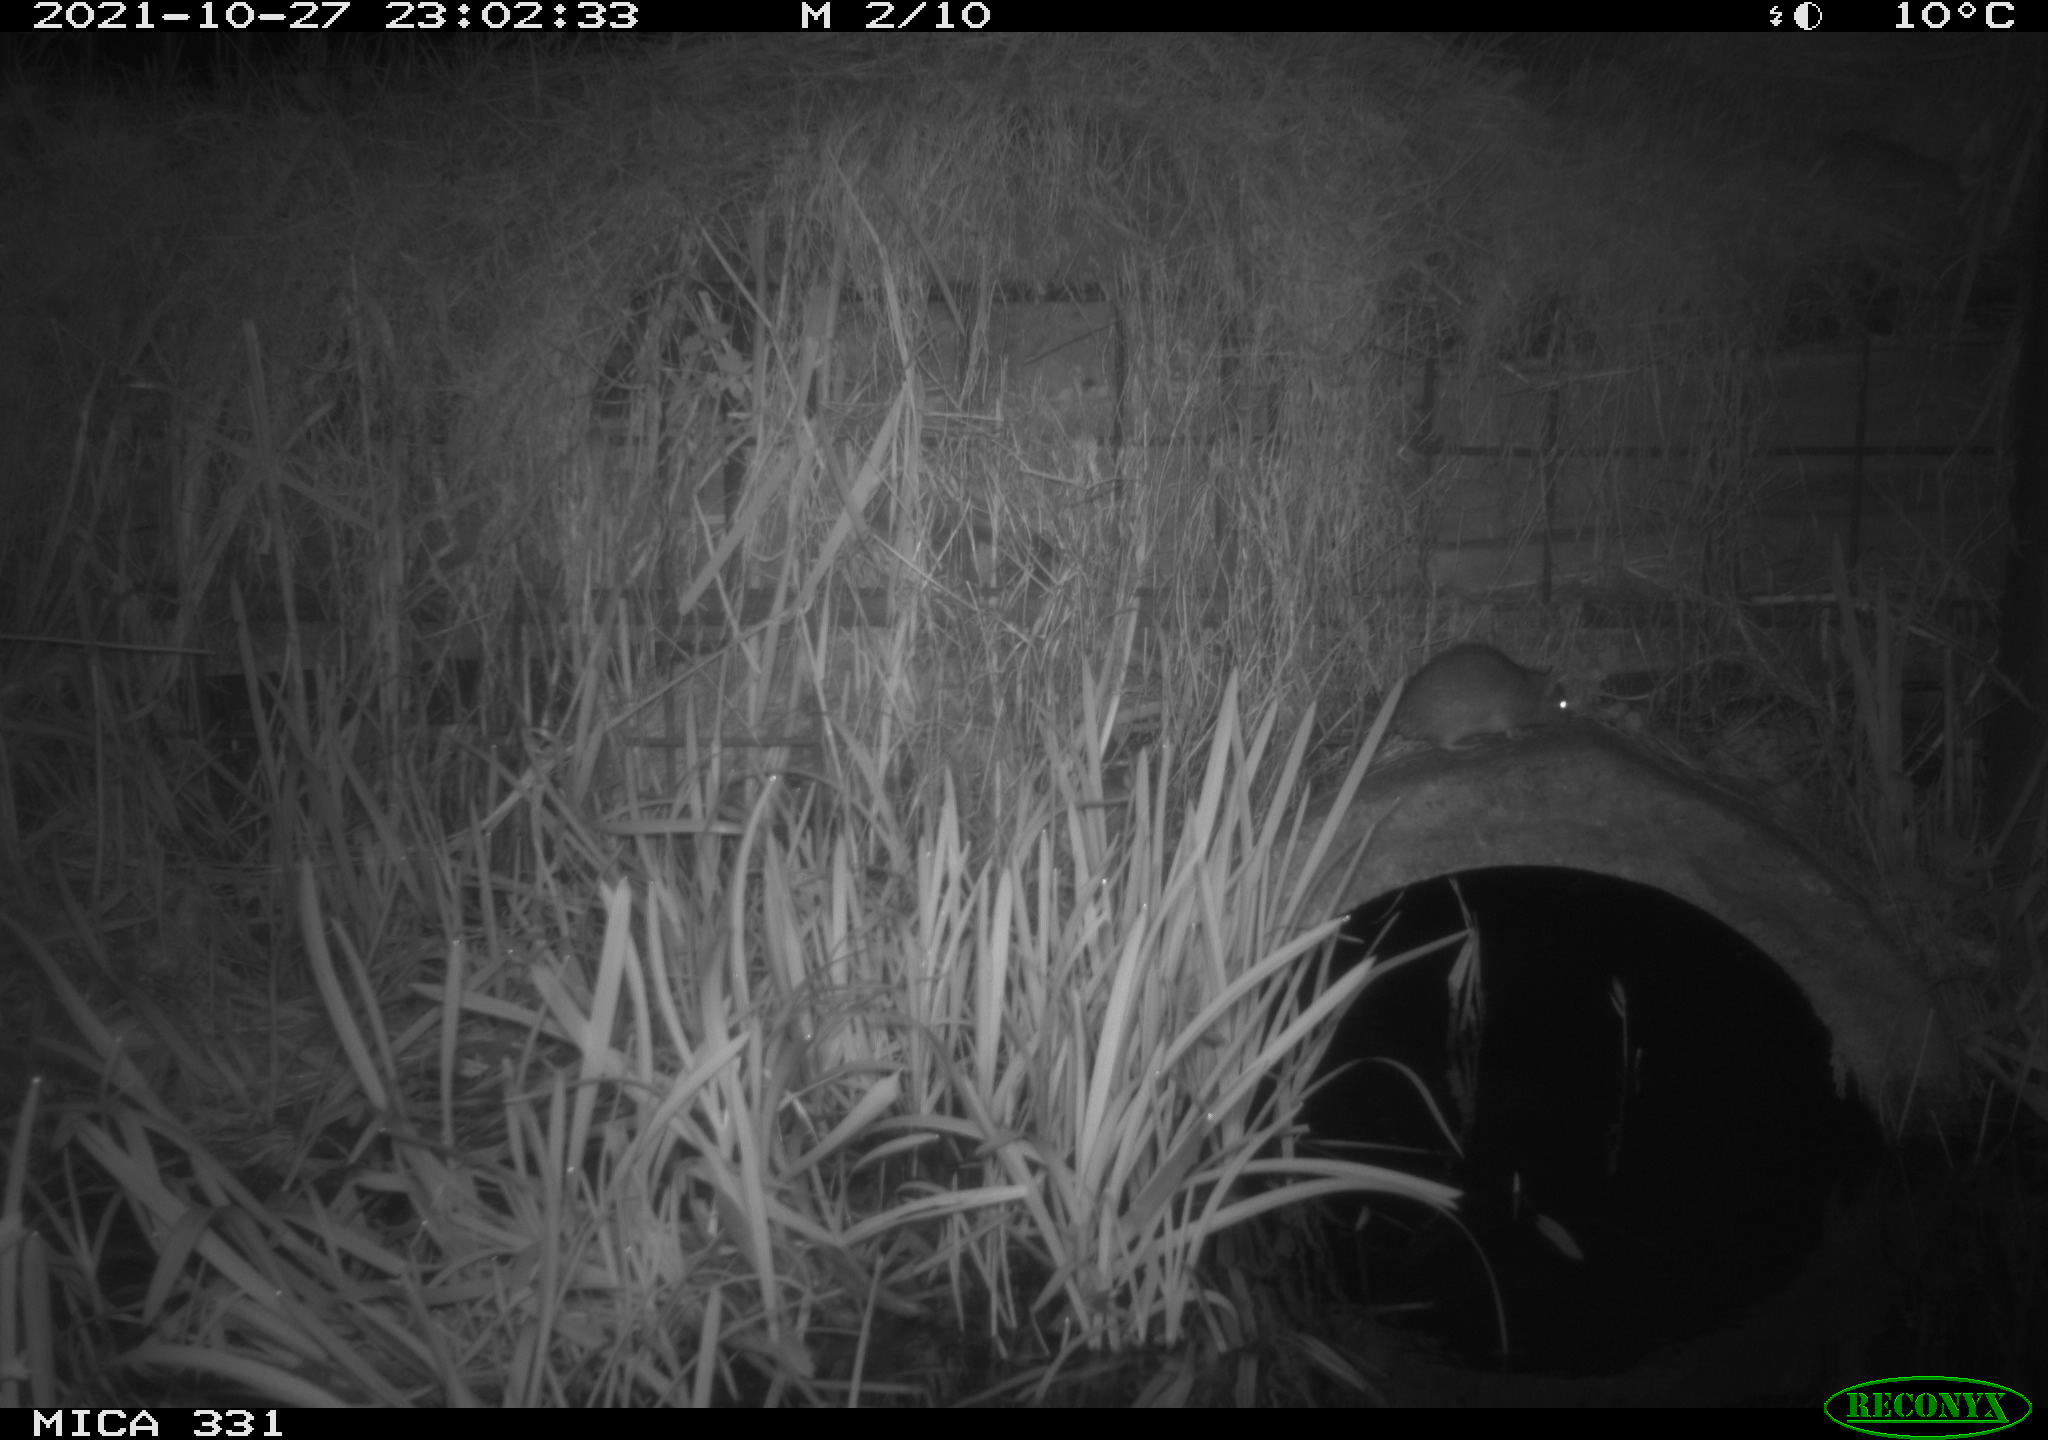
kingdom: Animalia
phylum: Chordata
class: Mammalia
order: Rodentia
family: Muridae
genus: Rattus
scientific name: Rattus norvegicus
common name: Brown rat
